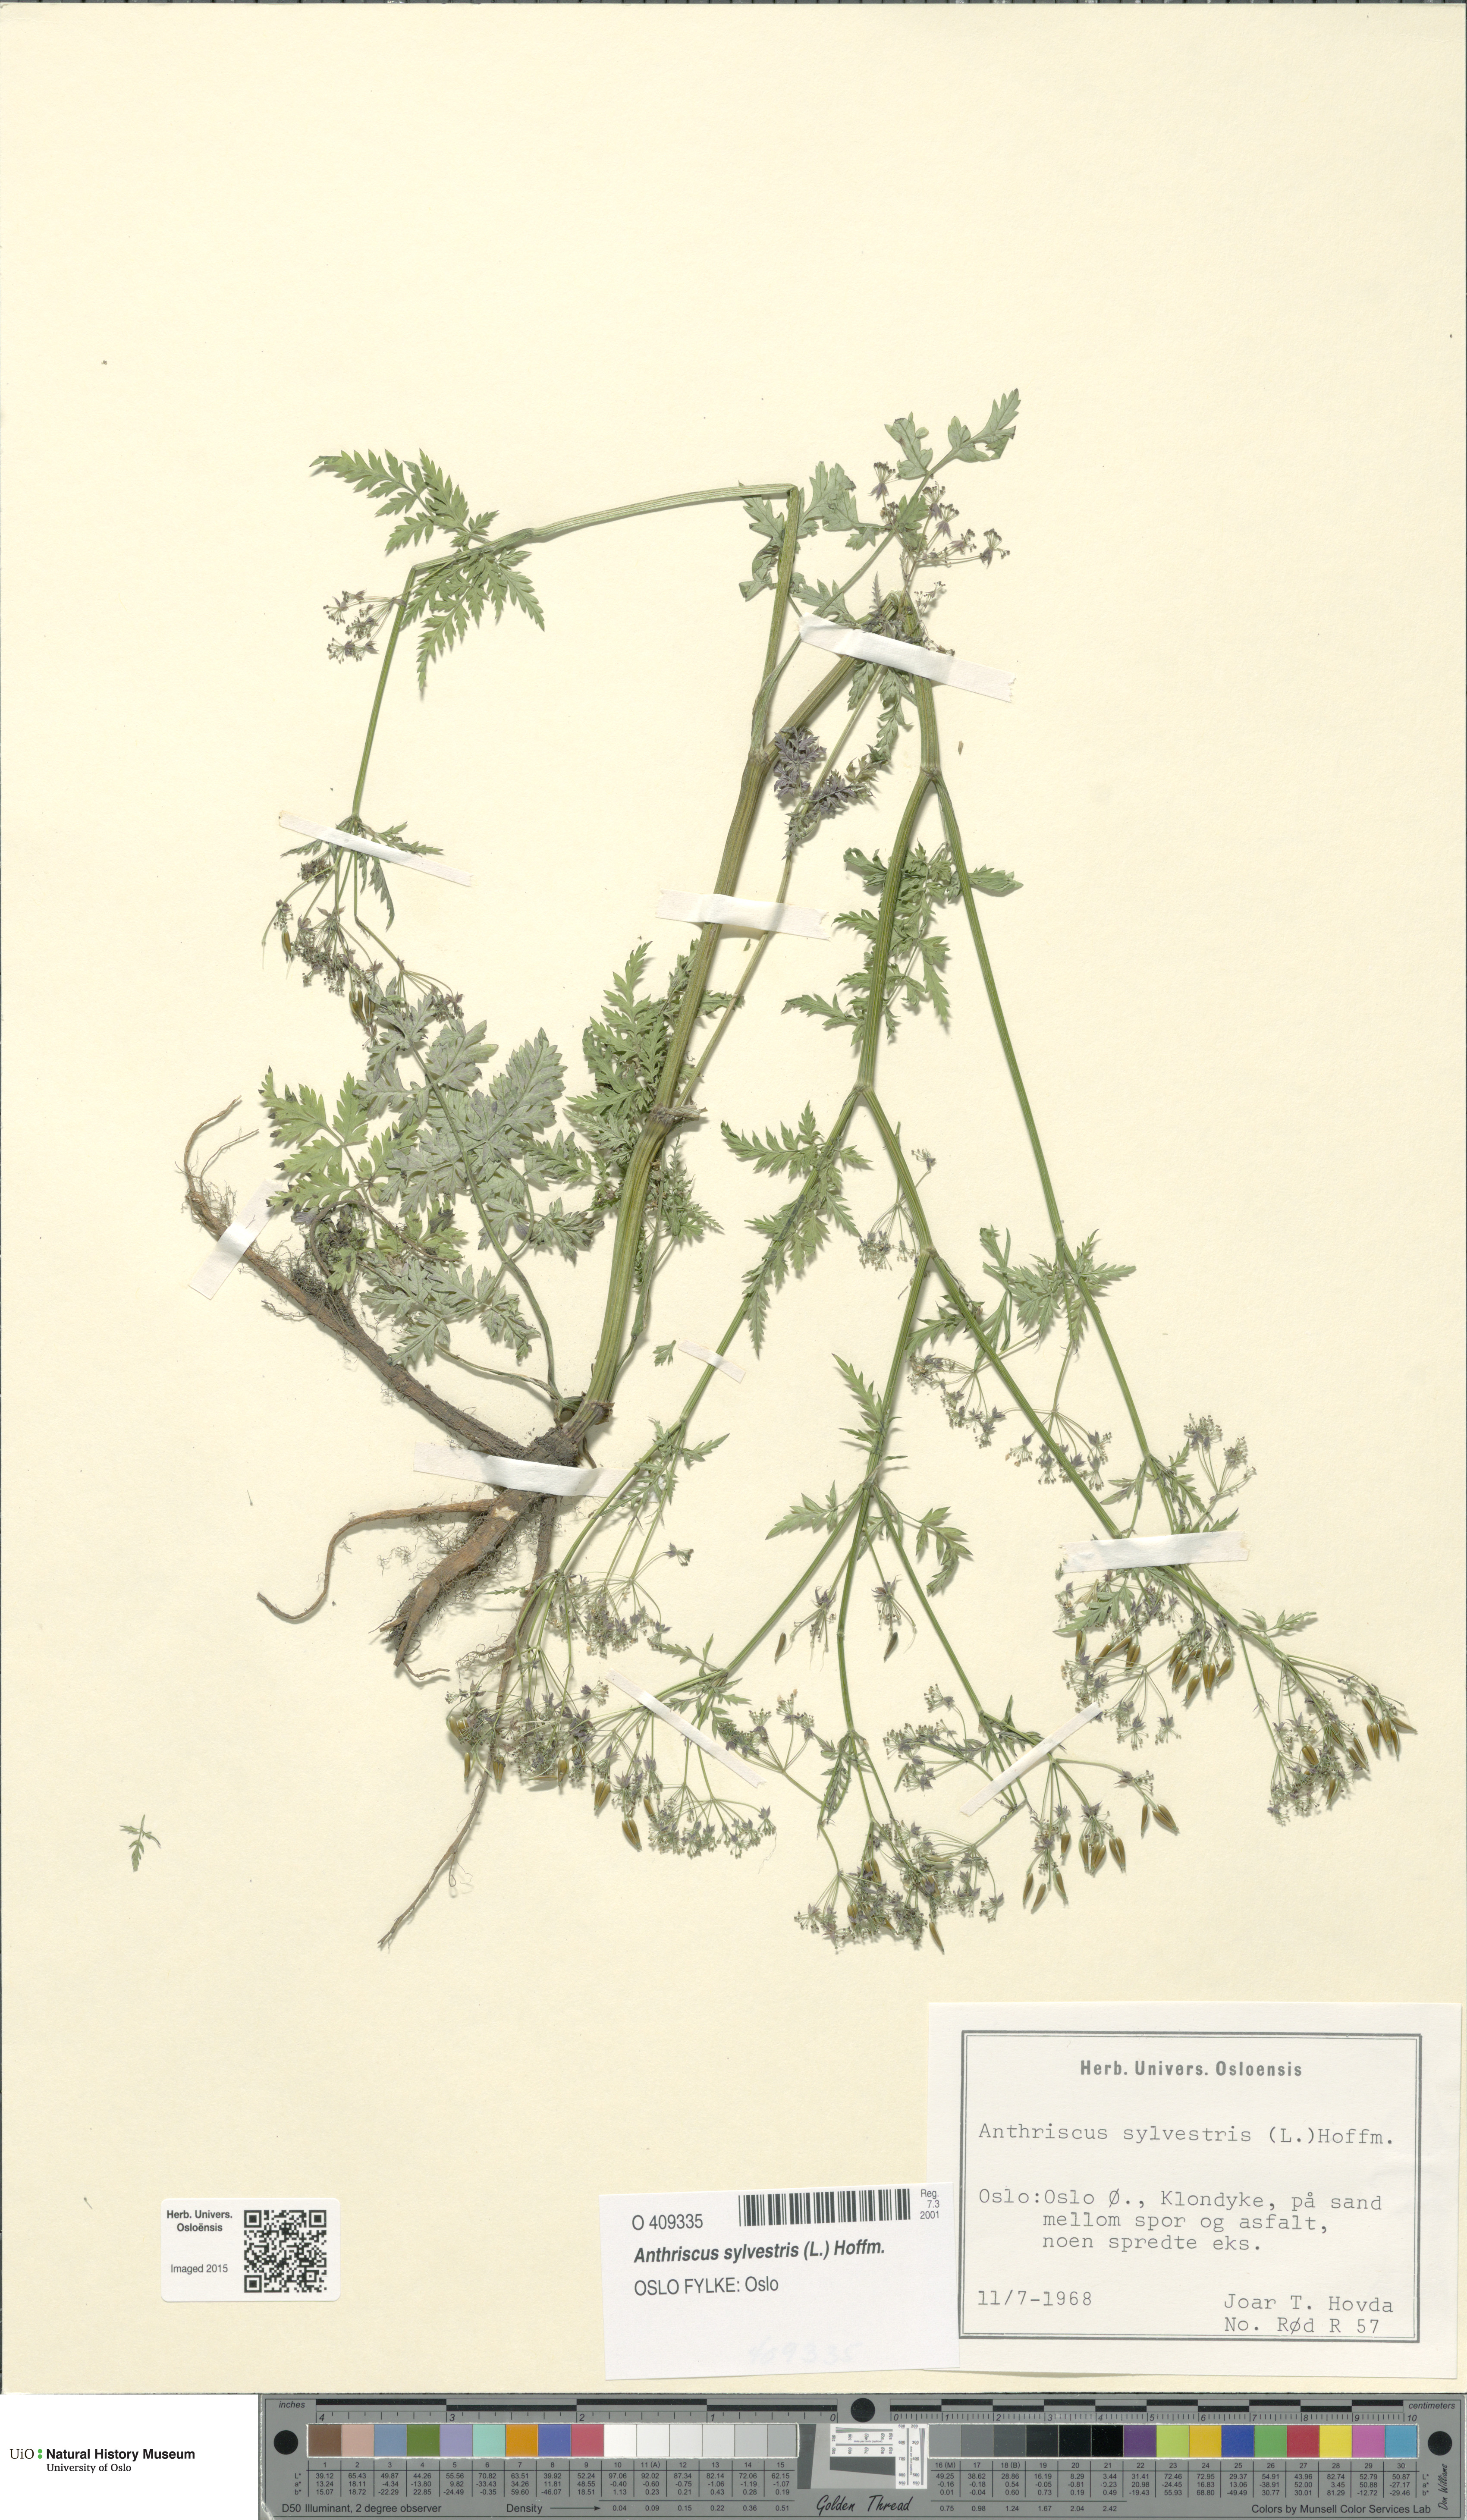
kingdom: Plantae
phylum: Tracheophyta
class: Magnoliopsida
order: Apiales
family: Apiaceae
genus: Anthriscus
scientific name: Anthriscus sylvestris
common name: Cow parsley
